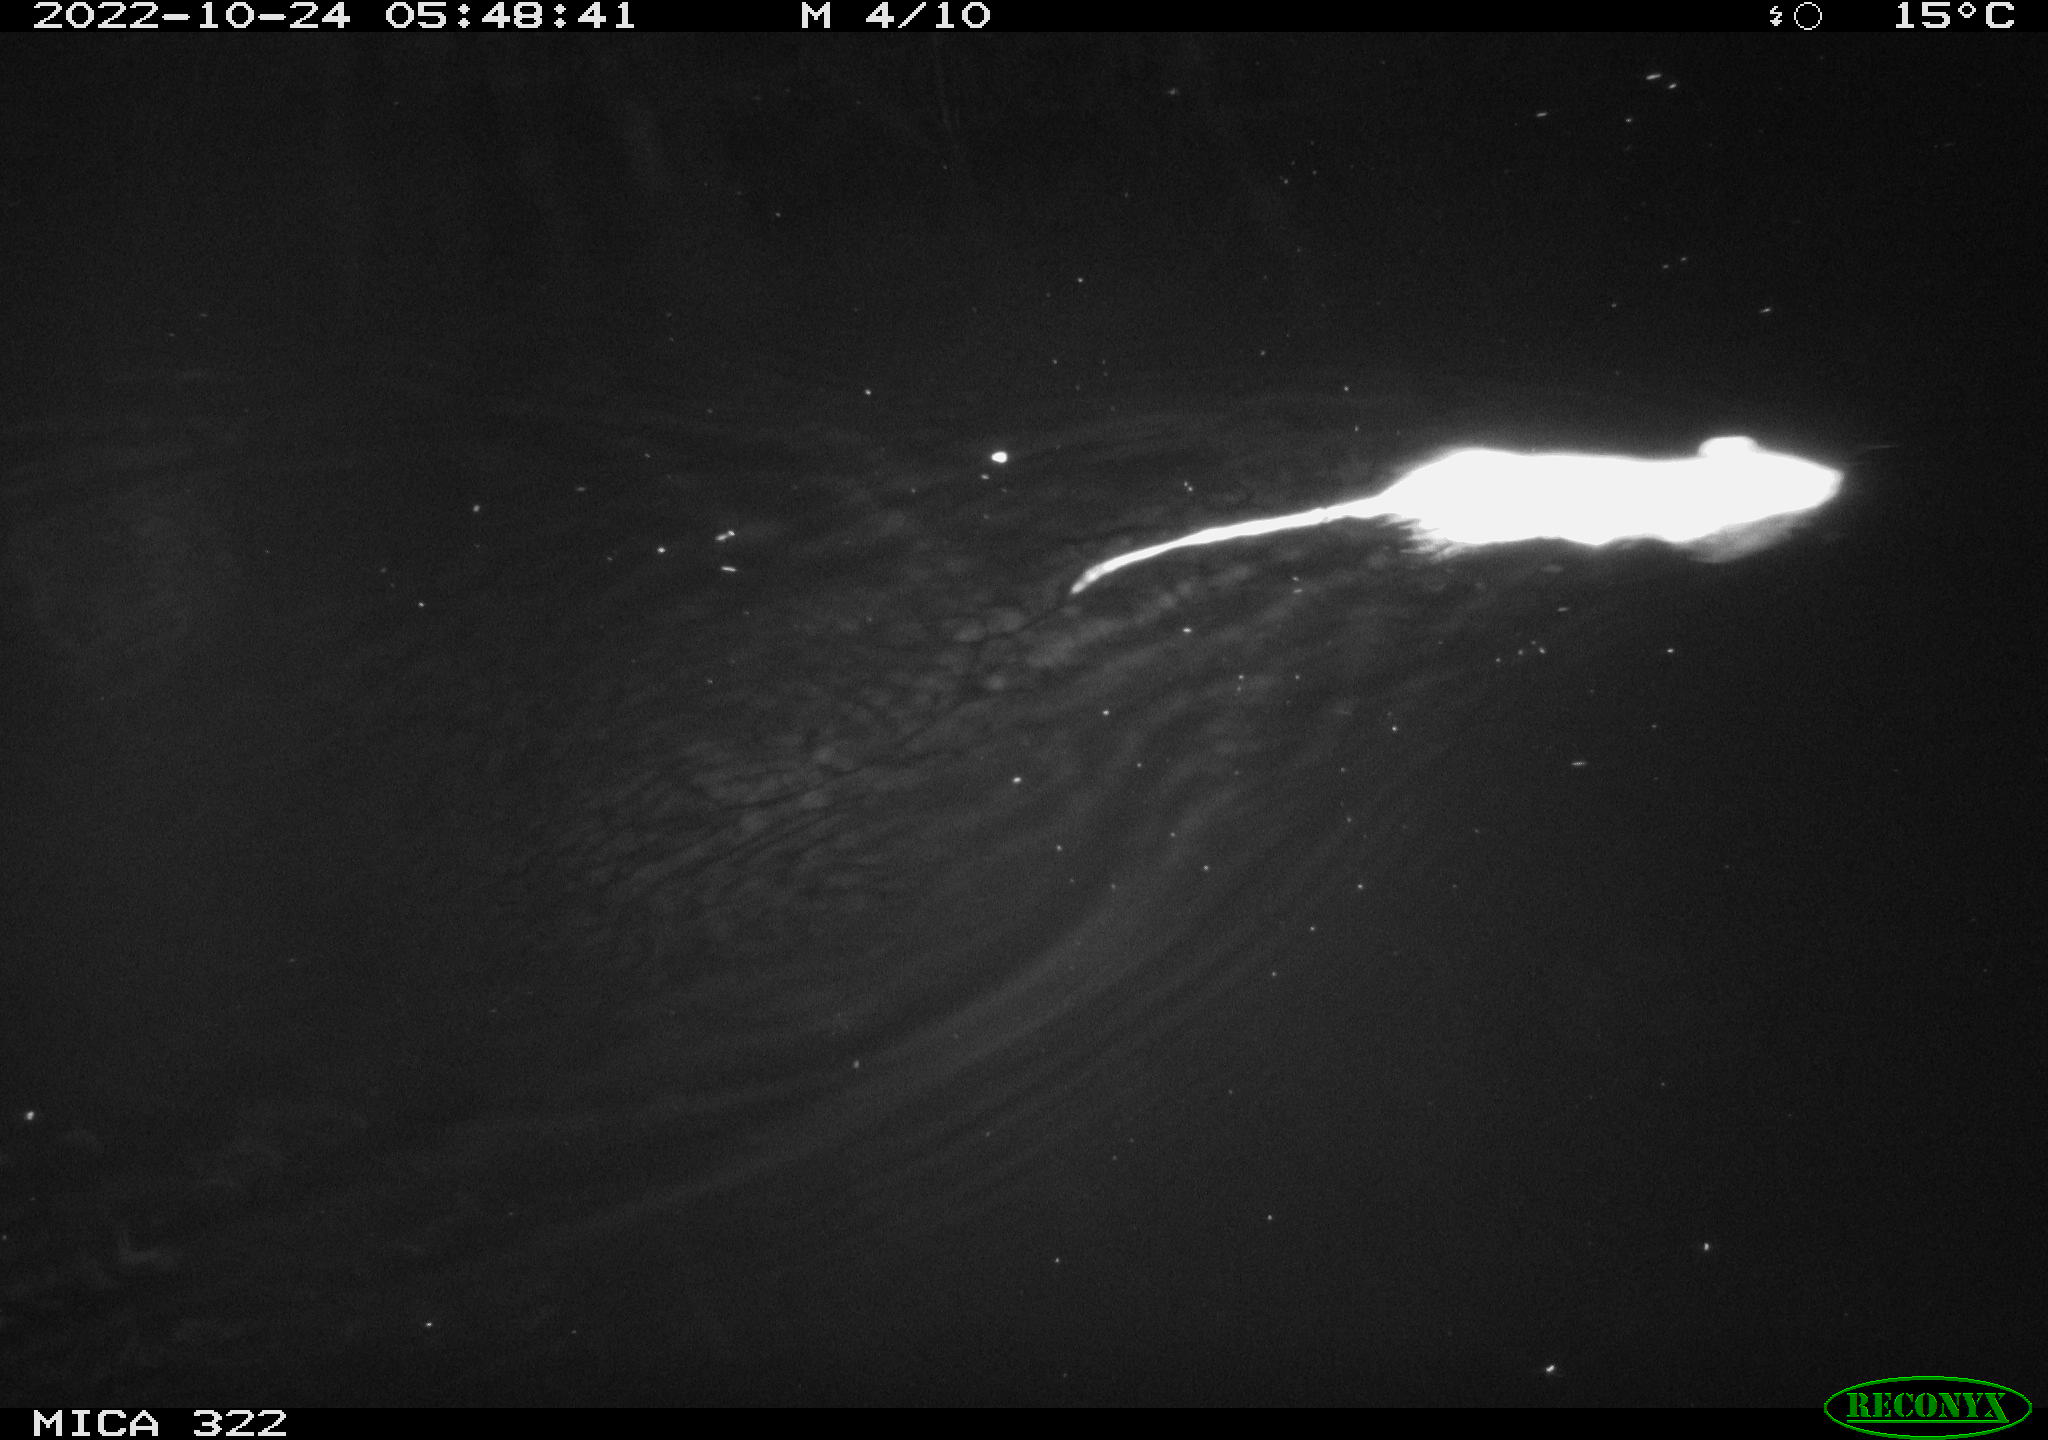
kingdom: Animalia
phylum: Chordata
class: Mammalia
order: Rodentia
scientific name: Rodentia
